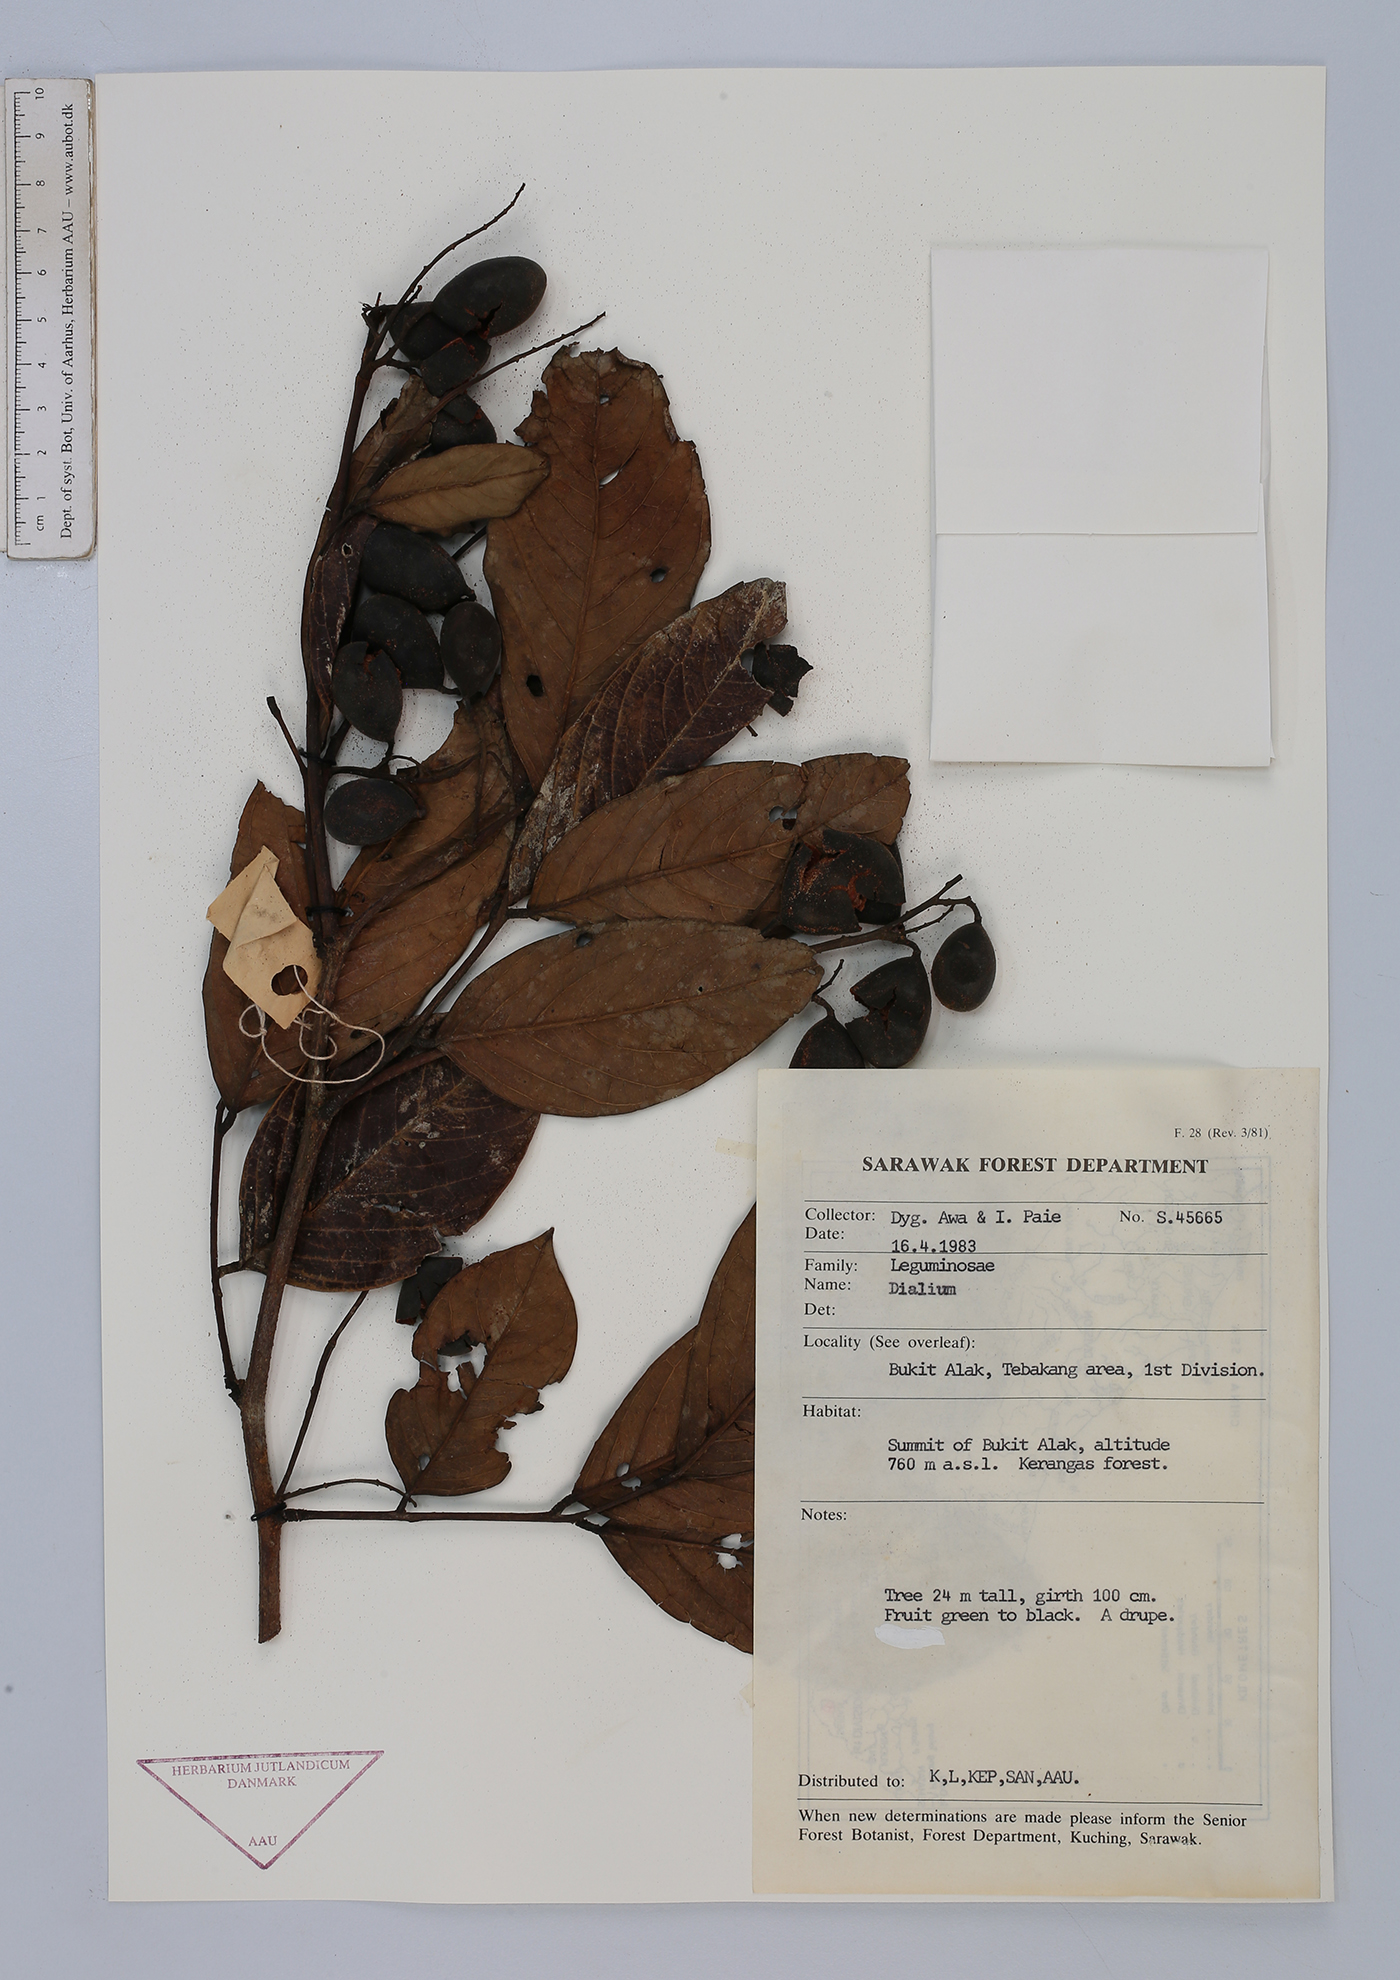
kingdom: Plantae
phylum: Tracheophyta
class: Magnoliopsida
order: Fabales
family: Fabaceae
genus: Dialium
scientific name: Dialium
